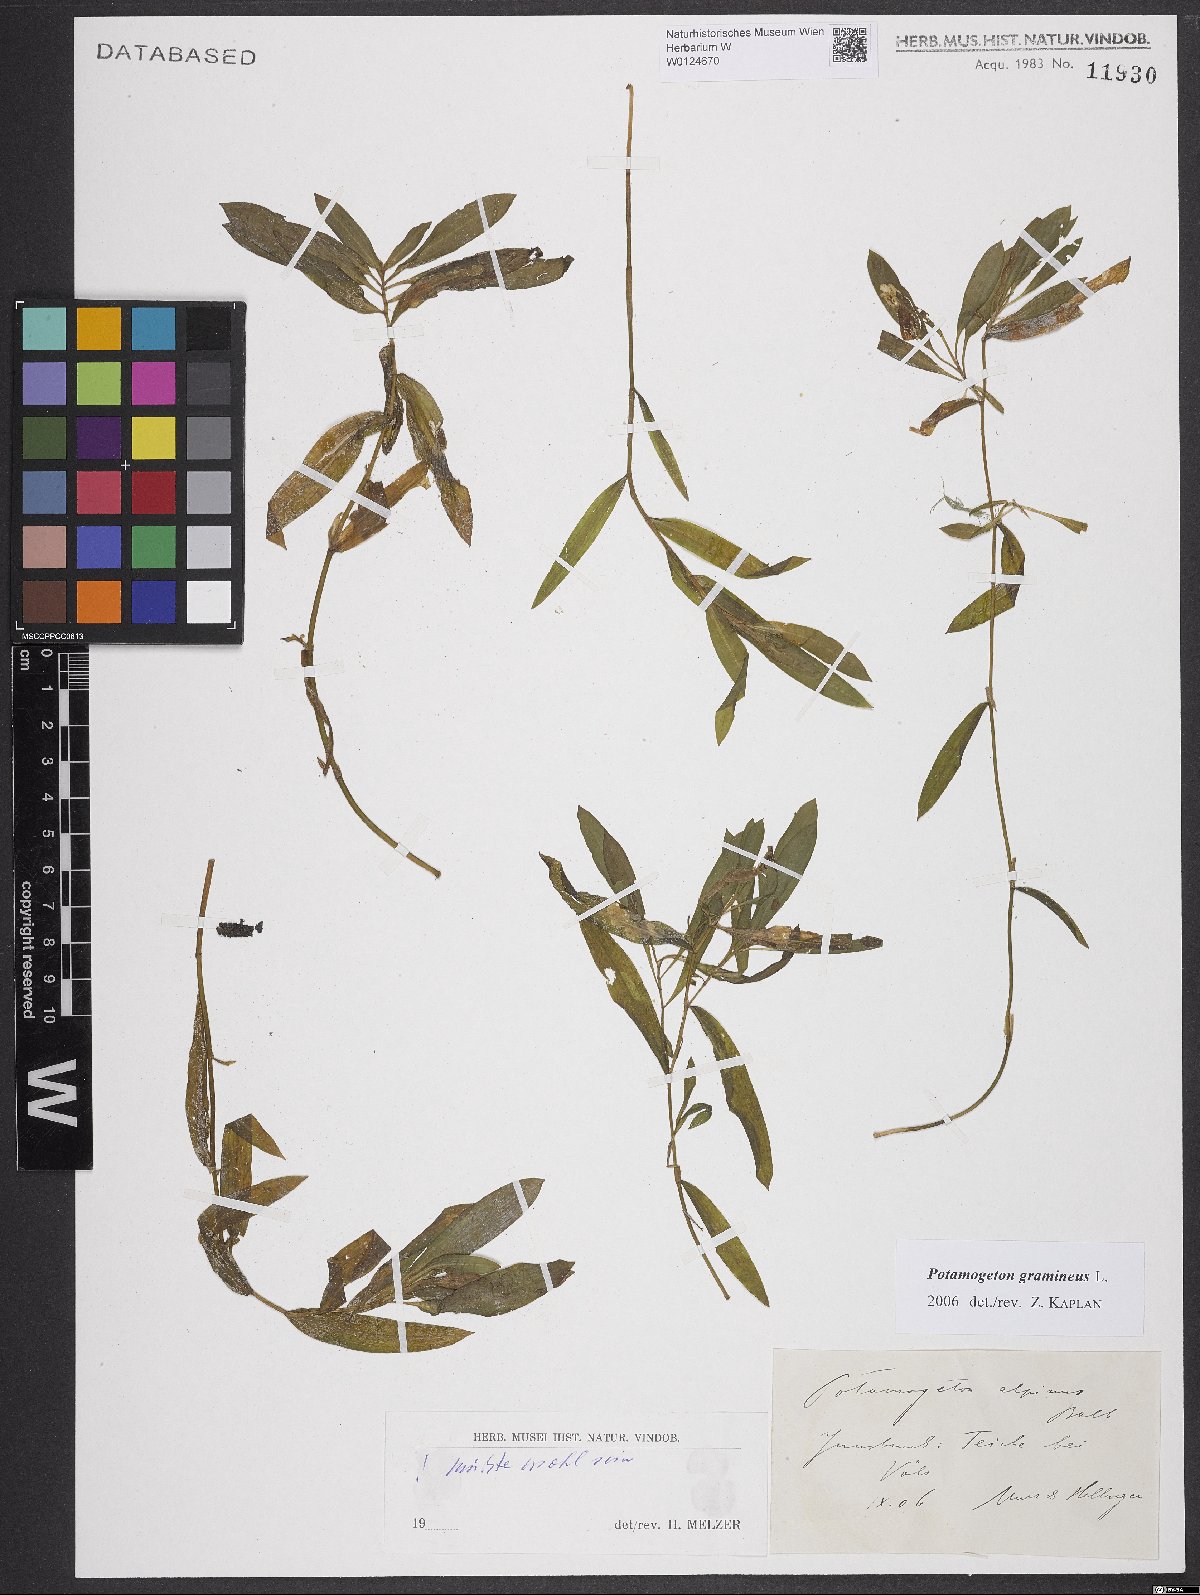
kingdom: Plantae
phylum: Tracheophyta
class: Liliopsida
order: Alismatales
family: Potamogetonaceae
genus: Potamogeton
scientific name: Potamogeton gramineus
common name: Various-leaved pondweed
